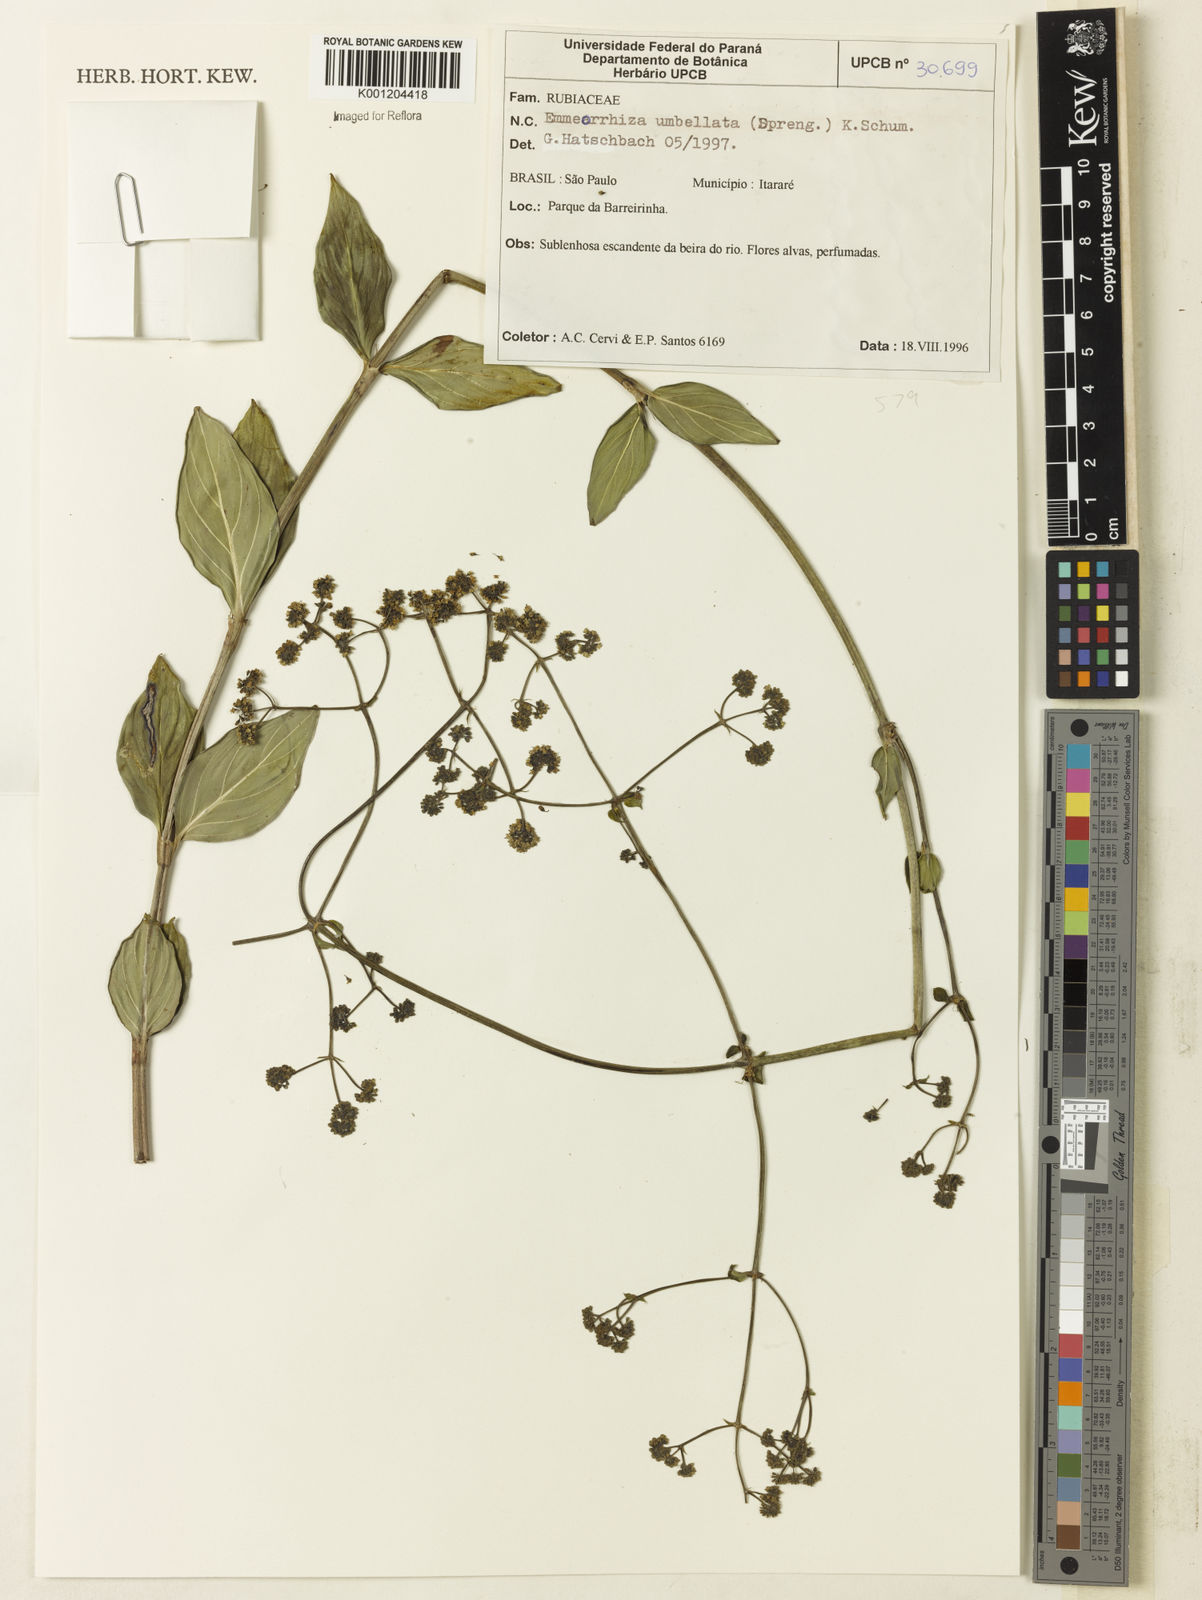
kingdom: Plantae
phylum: Tracheophyta
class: Magnoliopsida
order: Gentianales
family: Rubiaceae
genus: Emmeorhiza
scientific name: Emmeorhiza umbellata
